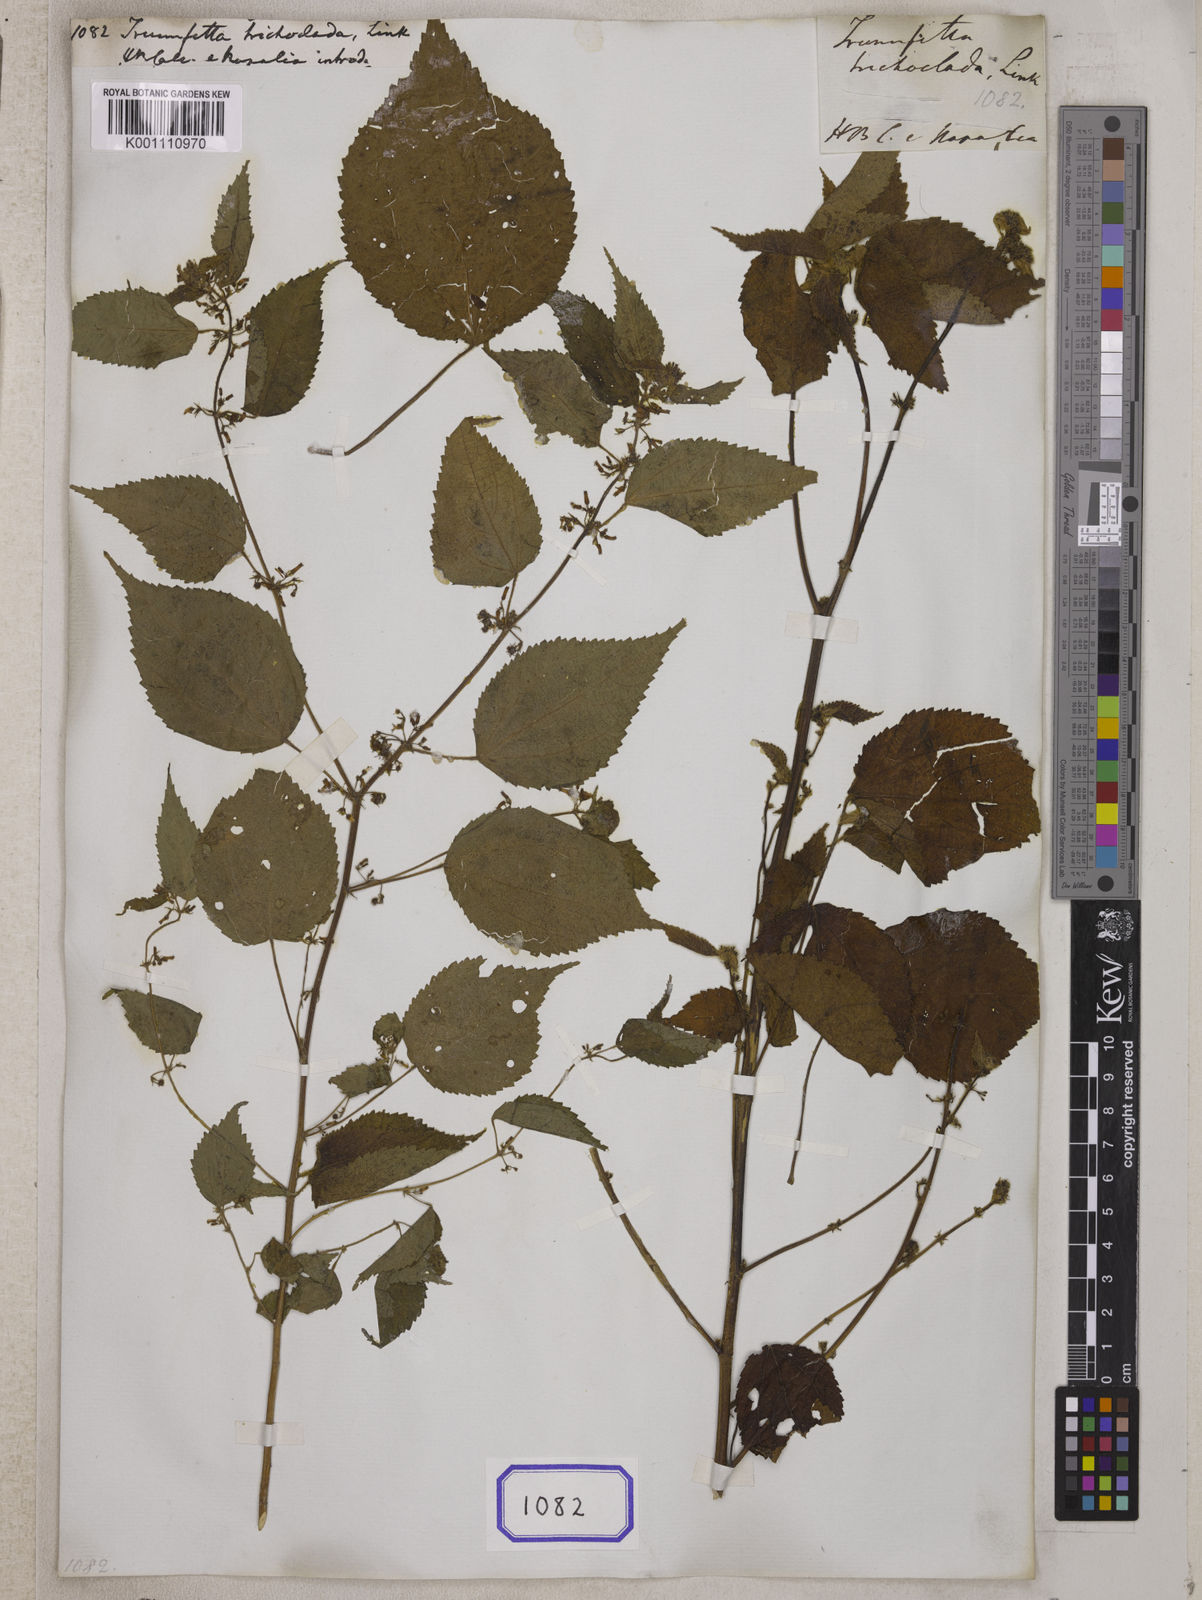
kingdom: Plantae
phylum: Tracheophyta
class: Magnoliopsida
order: Malvales
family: Malvaceae
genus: Triumfetta
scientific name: Triumfetta
